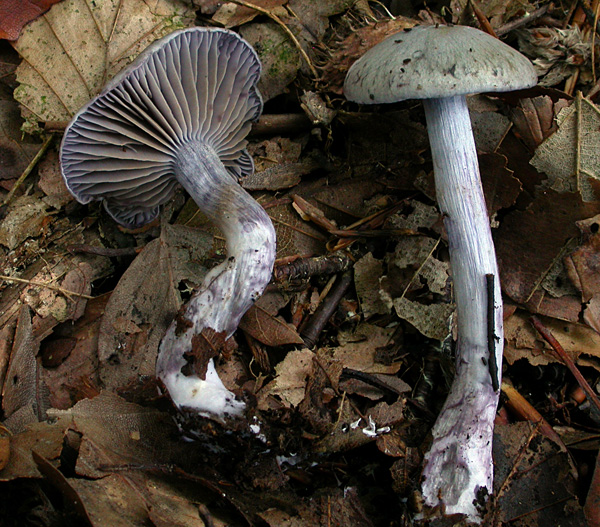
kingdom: Fungi
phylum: Basidiomycota
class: Agaricomycetes
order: Agaricales
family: Cortinariaceae
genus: Thaxterogaster
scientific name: Thaxterogaster subporphyropus
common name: ametyst-slørhat
